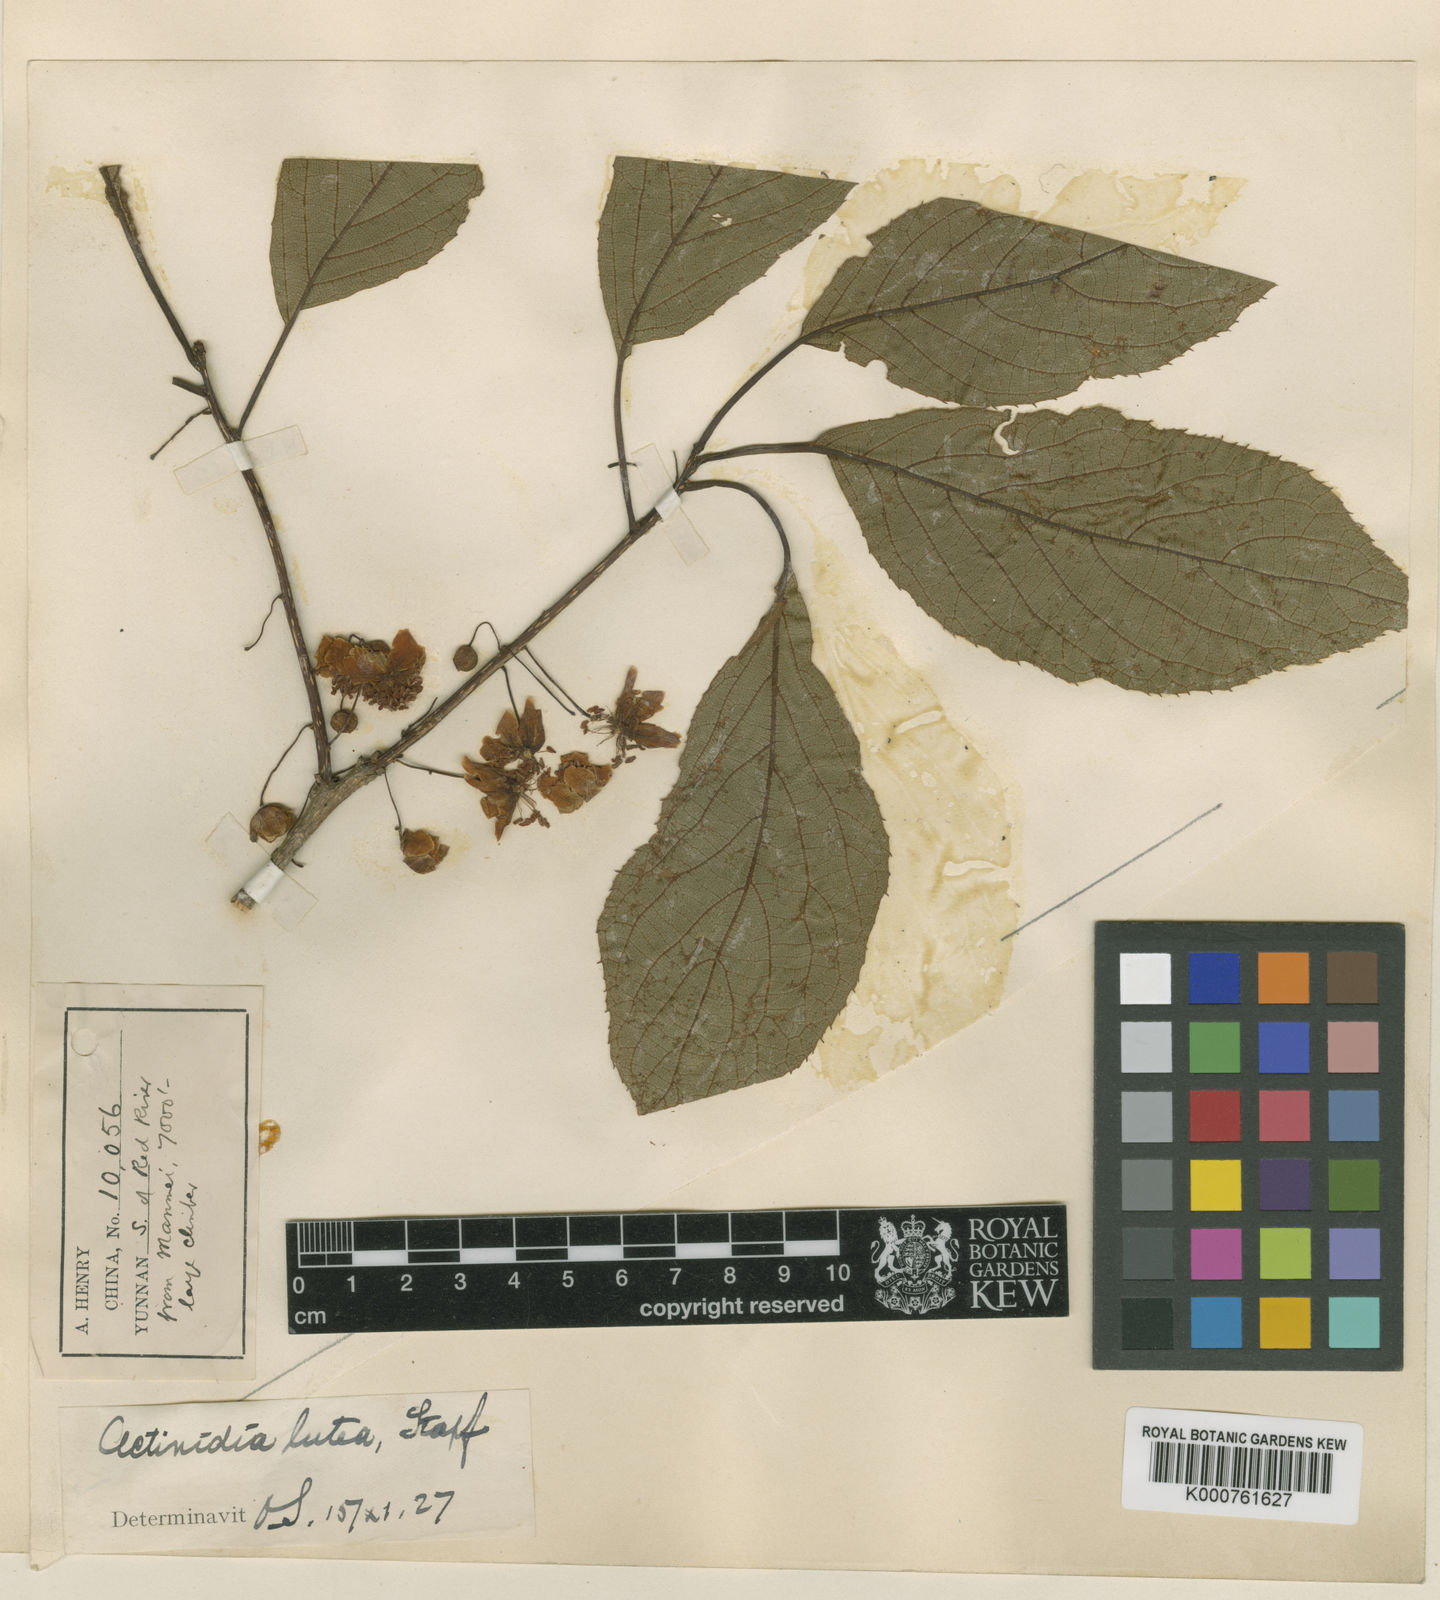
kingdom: Plantae
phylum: Tracheophyta
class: Magnoliopsida
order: Ericales
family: Actinidiaceae
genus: Actinidia
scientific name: Actinidia lutea
